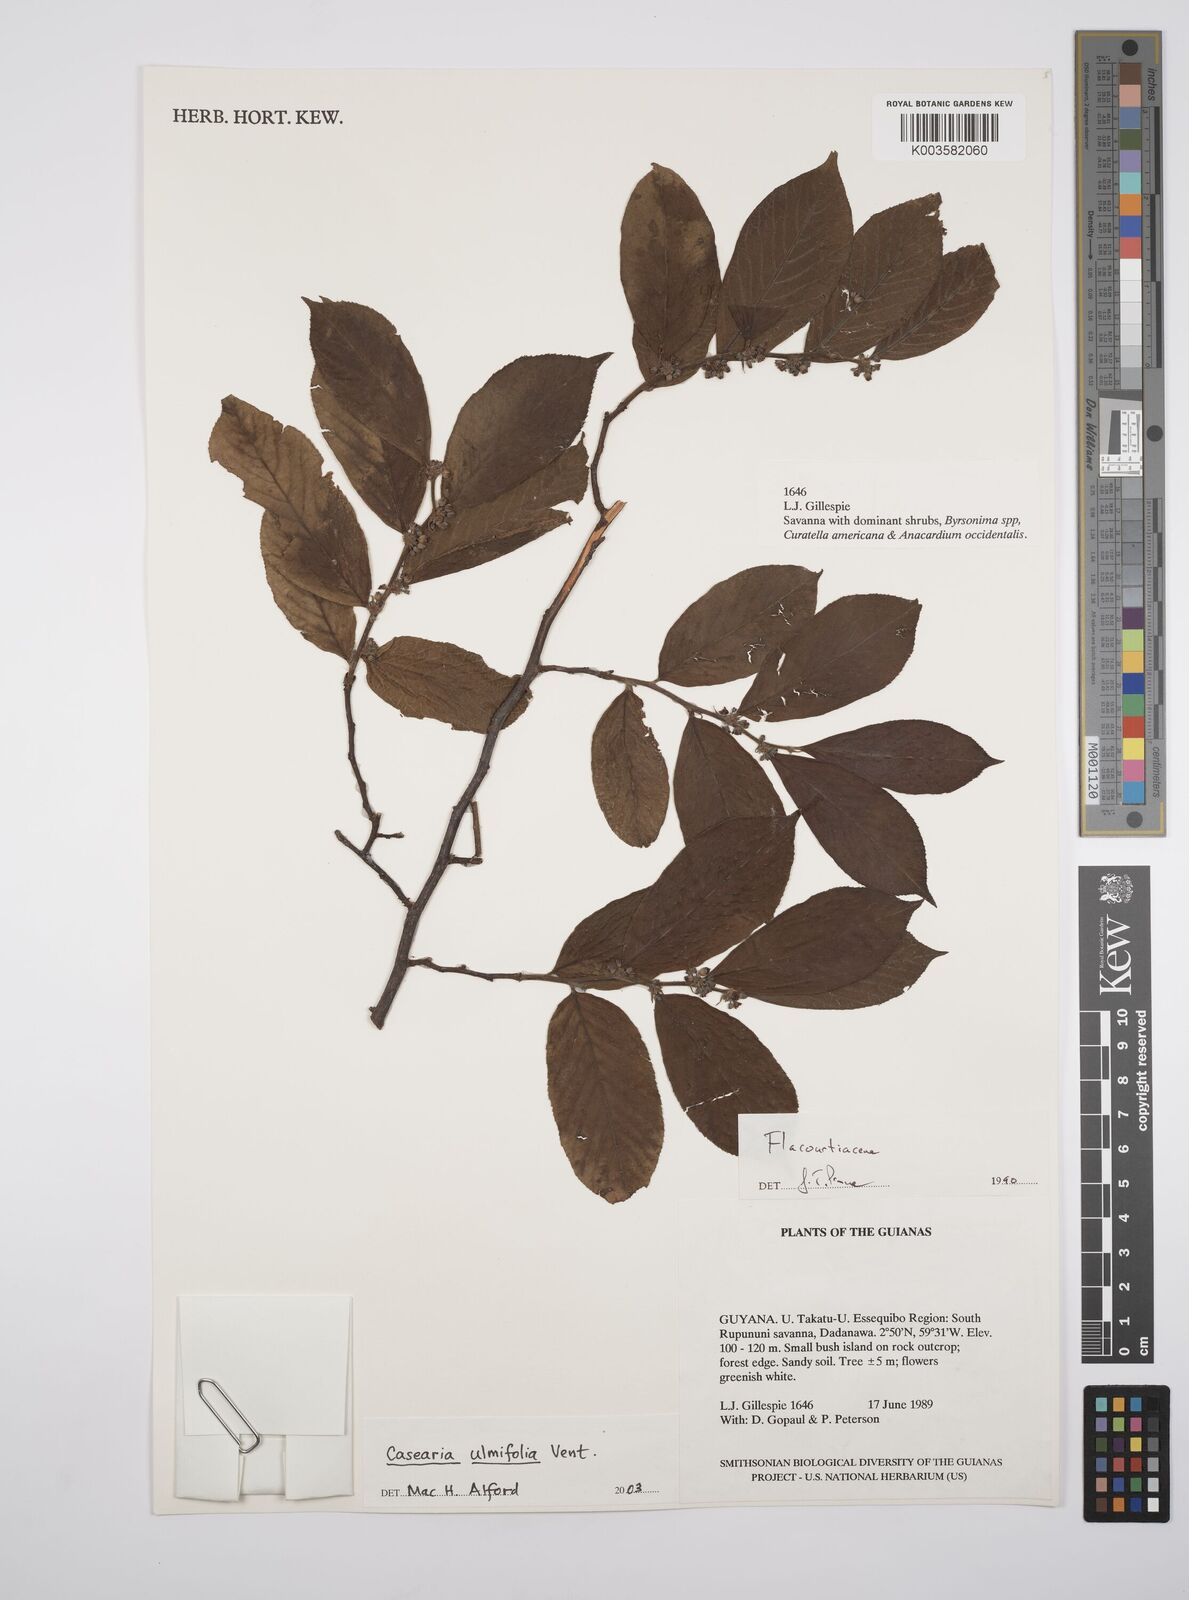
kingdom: Plantae
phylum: Tracheophyta
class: Magnoliopsida
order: Malpighiales
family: Salicaceae
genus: Casearia
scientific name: Casearia ulmifolia
